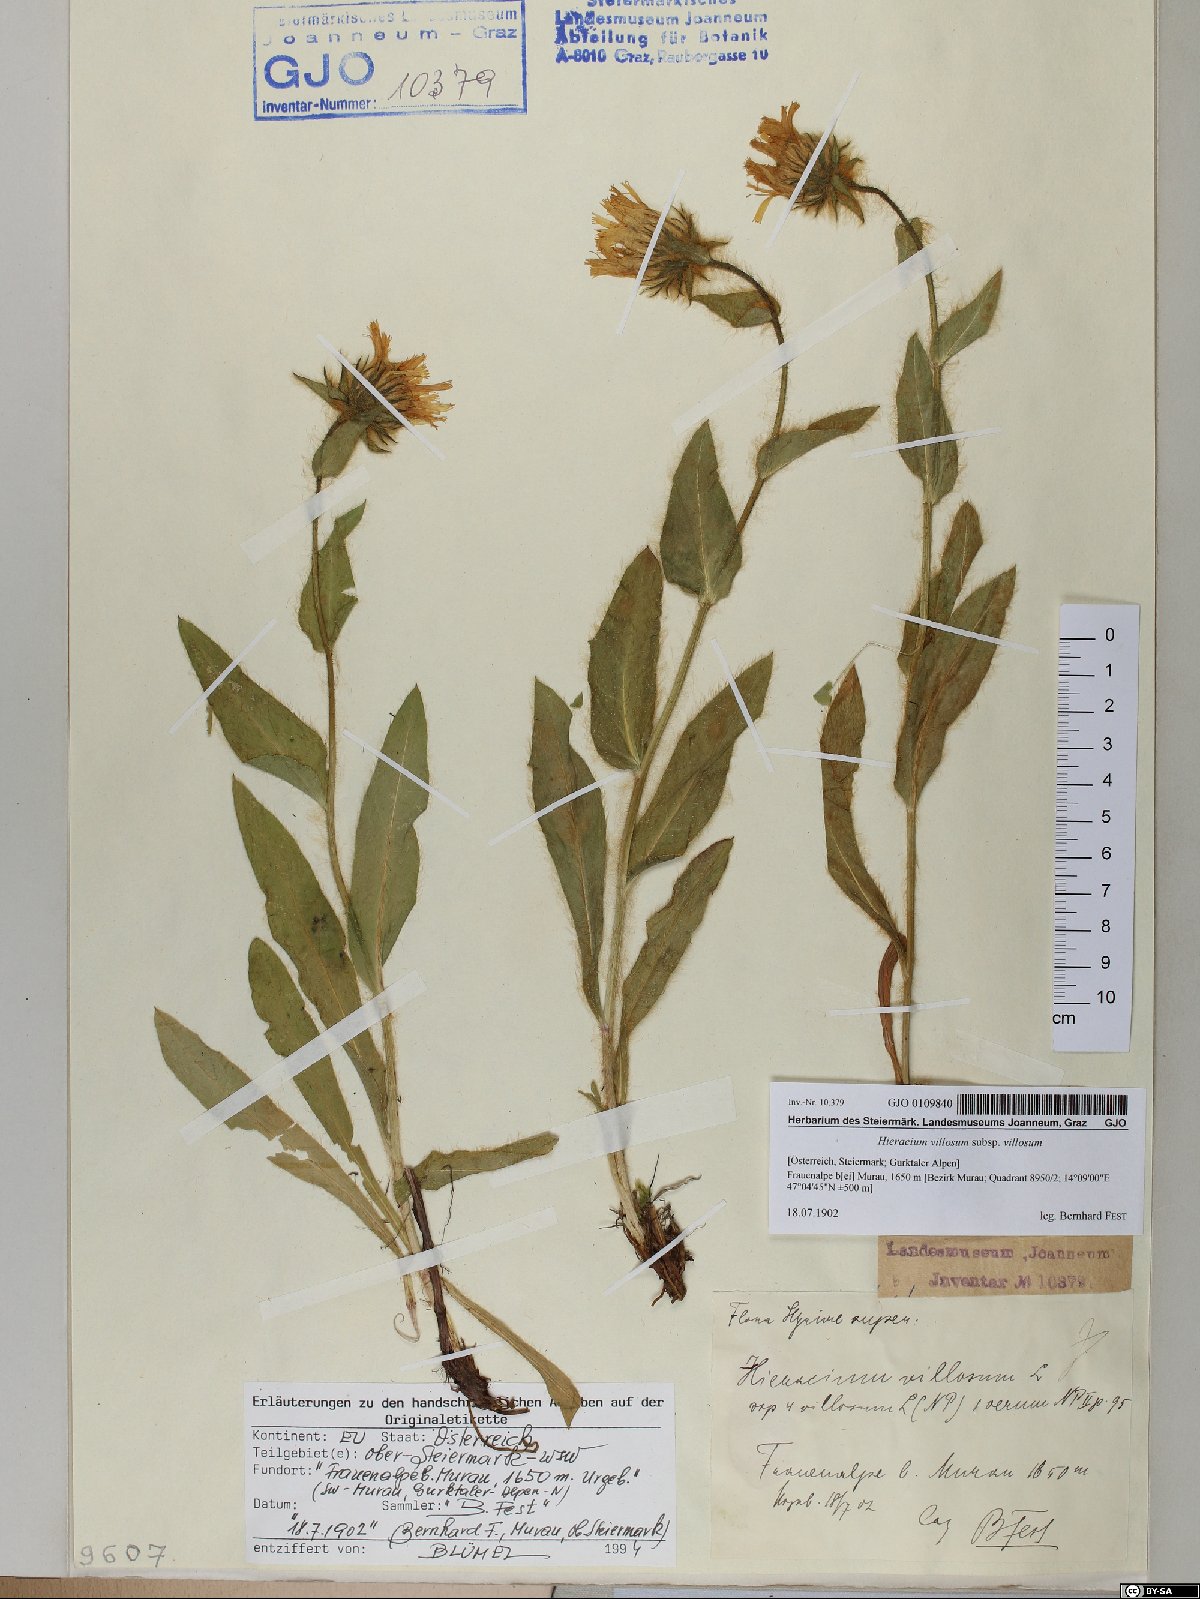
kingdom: Plantae
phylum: Tracheophyta
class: Magnoliopsida
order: Asterales
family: Asteraceae
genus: Hieracium
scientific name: Hieracium villosum
